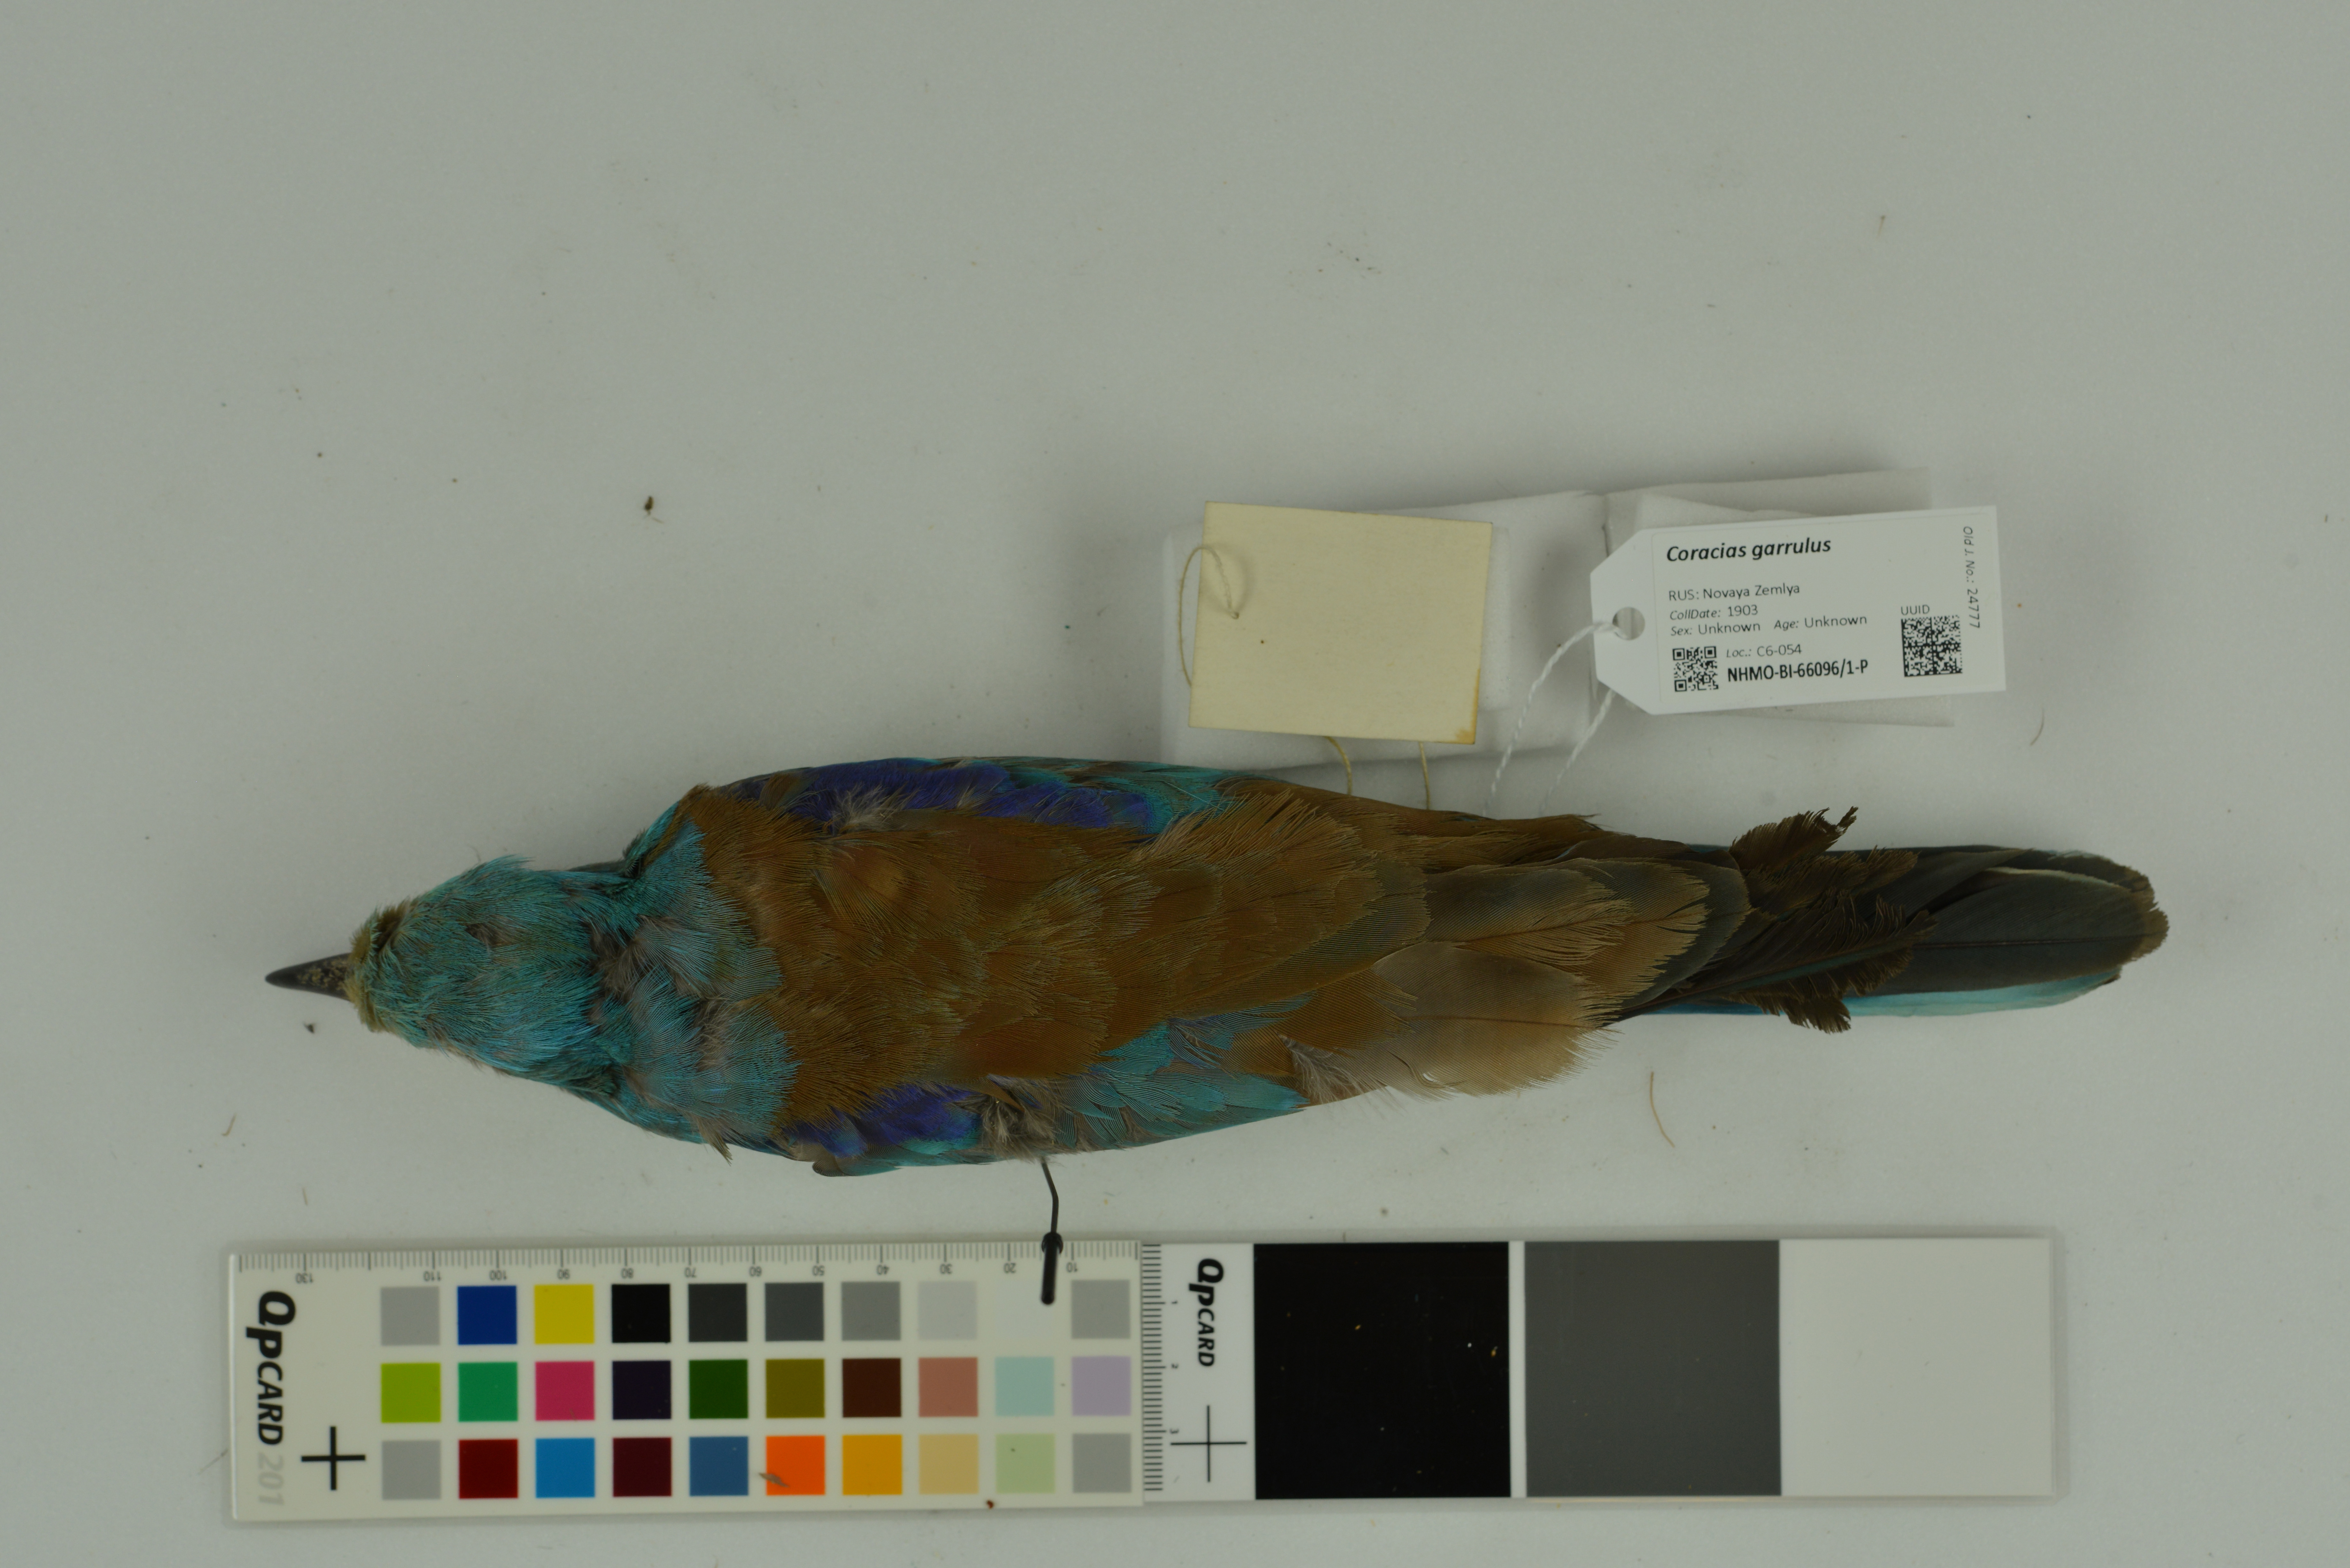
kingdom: Animalia
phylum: Chordata
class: Aves
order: Coraciiformes
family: Coraciidae
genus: Coracias
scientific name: Coracias garrulus
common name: European roller
